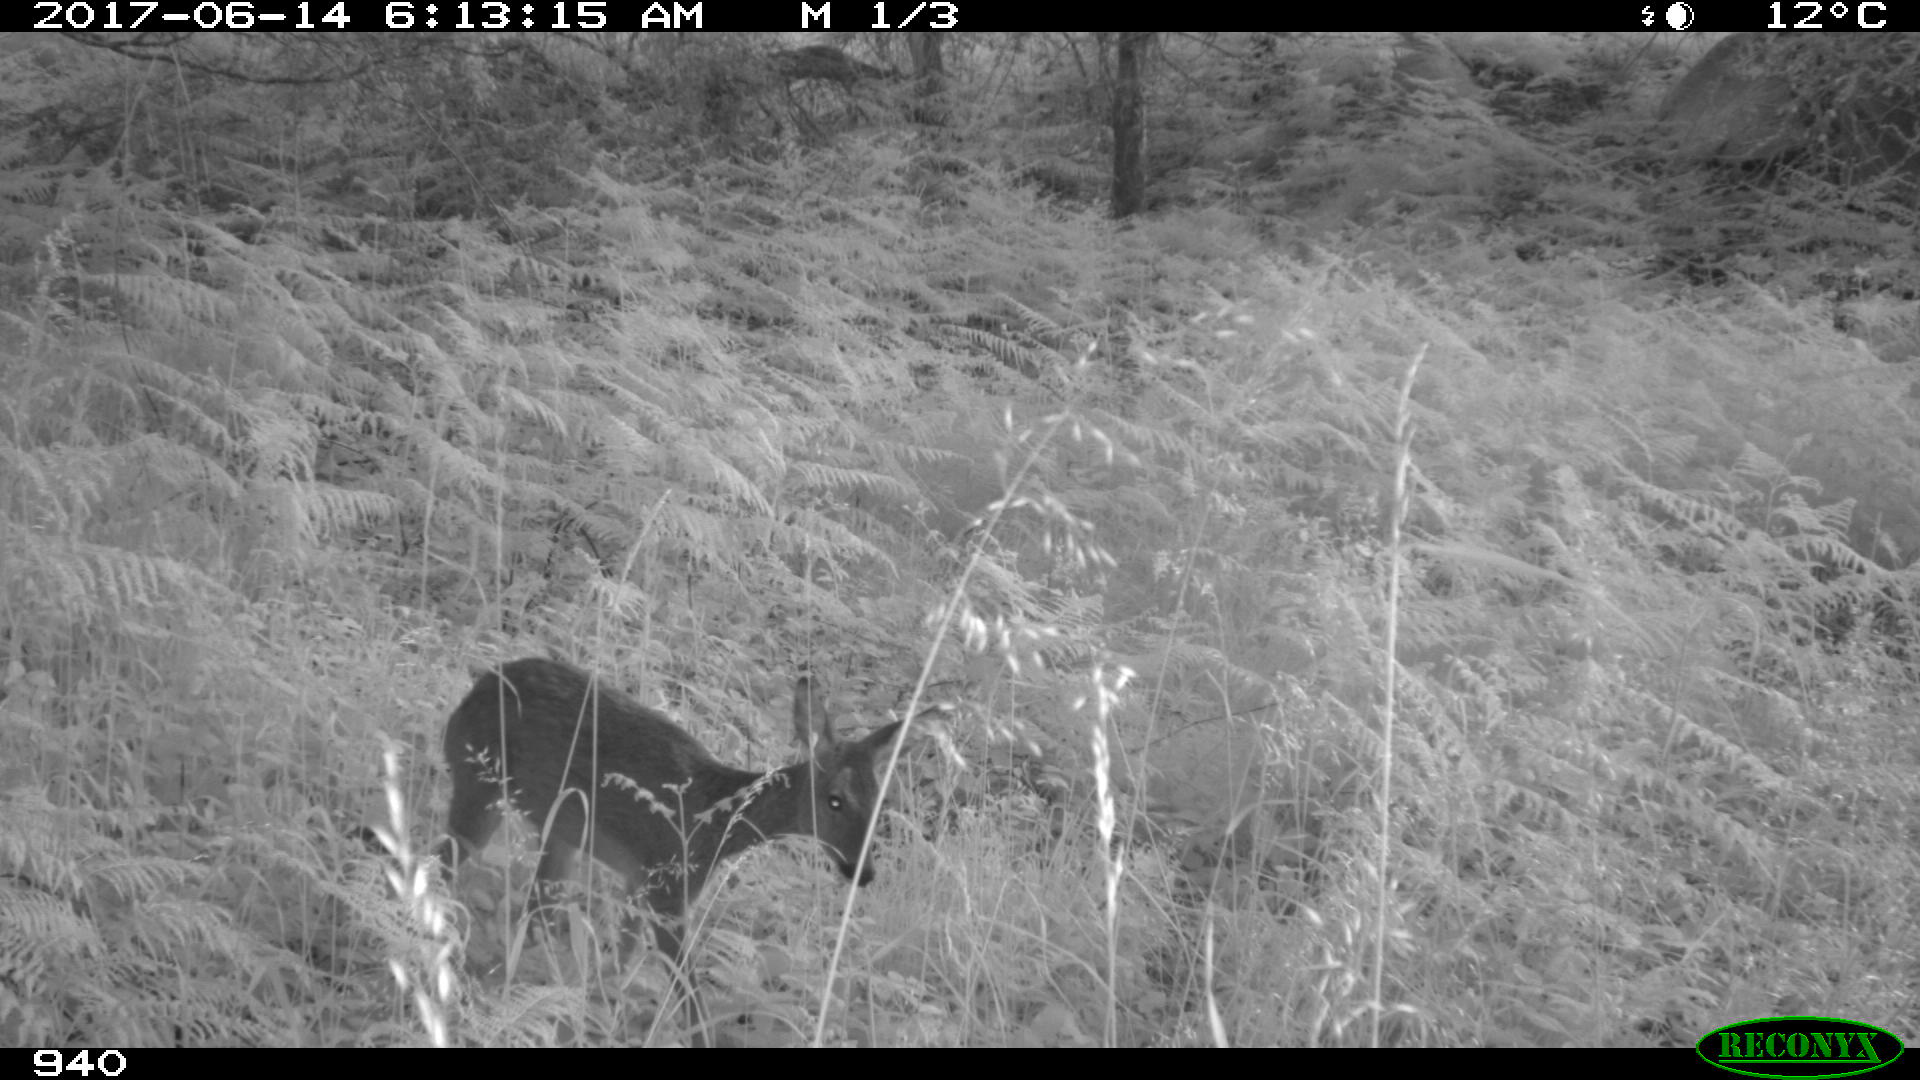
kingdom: Animalia
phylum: Chordata
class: Mammalia
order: Artiodactyla
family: Cervidae
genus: Capreolus
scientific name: Capreolus capreolus
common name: Western roe deer
